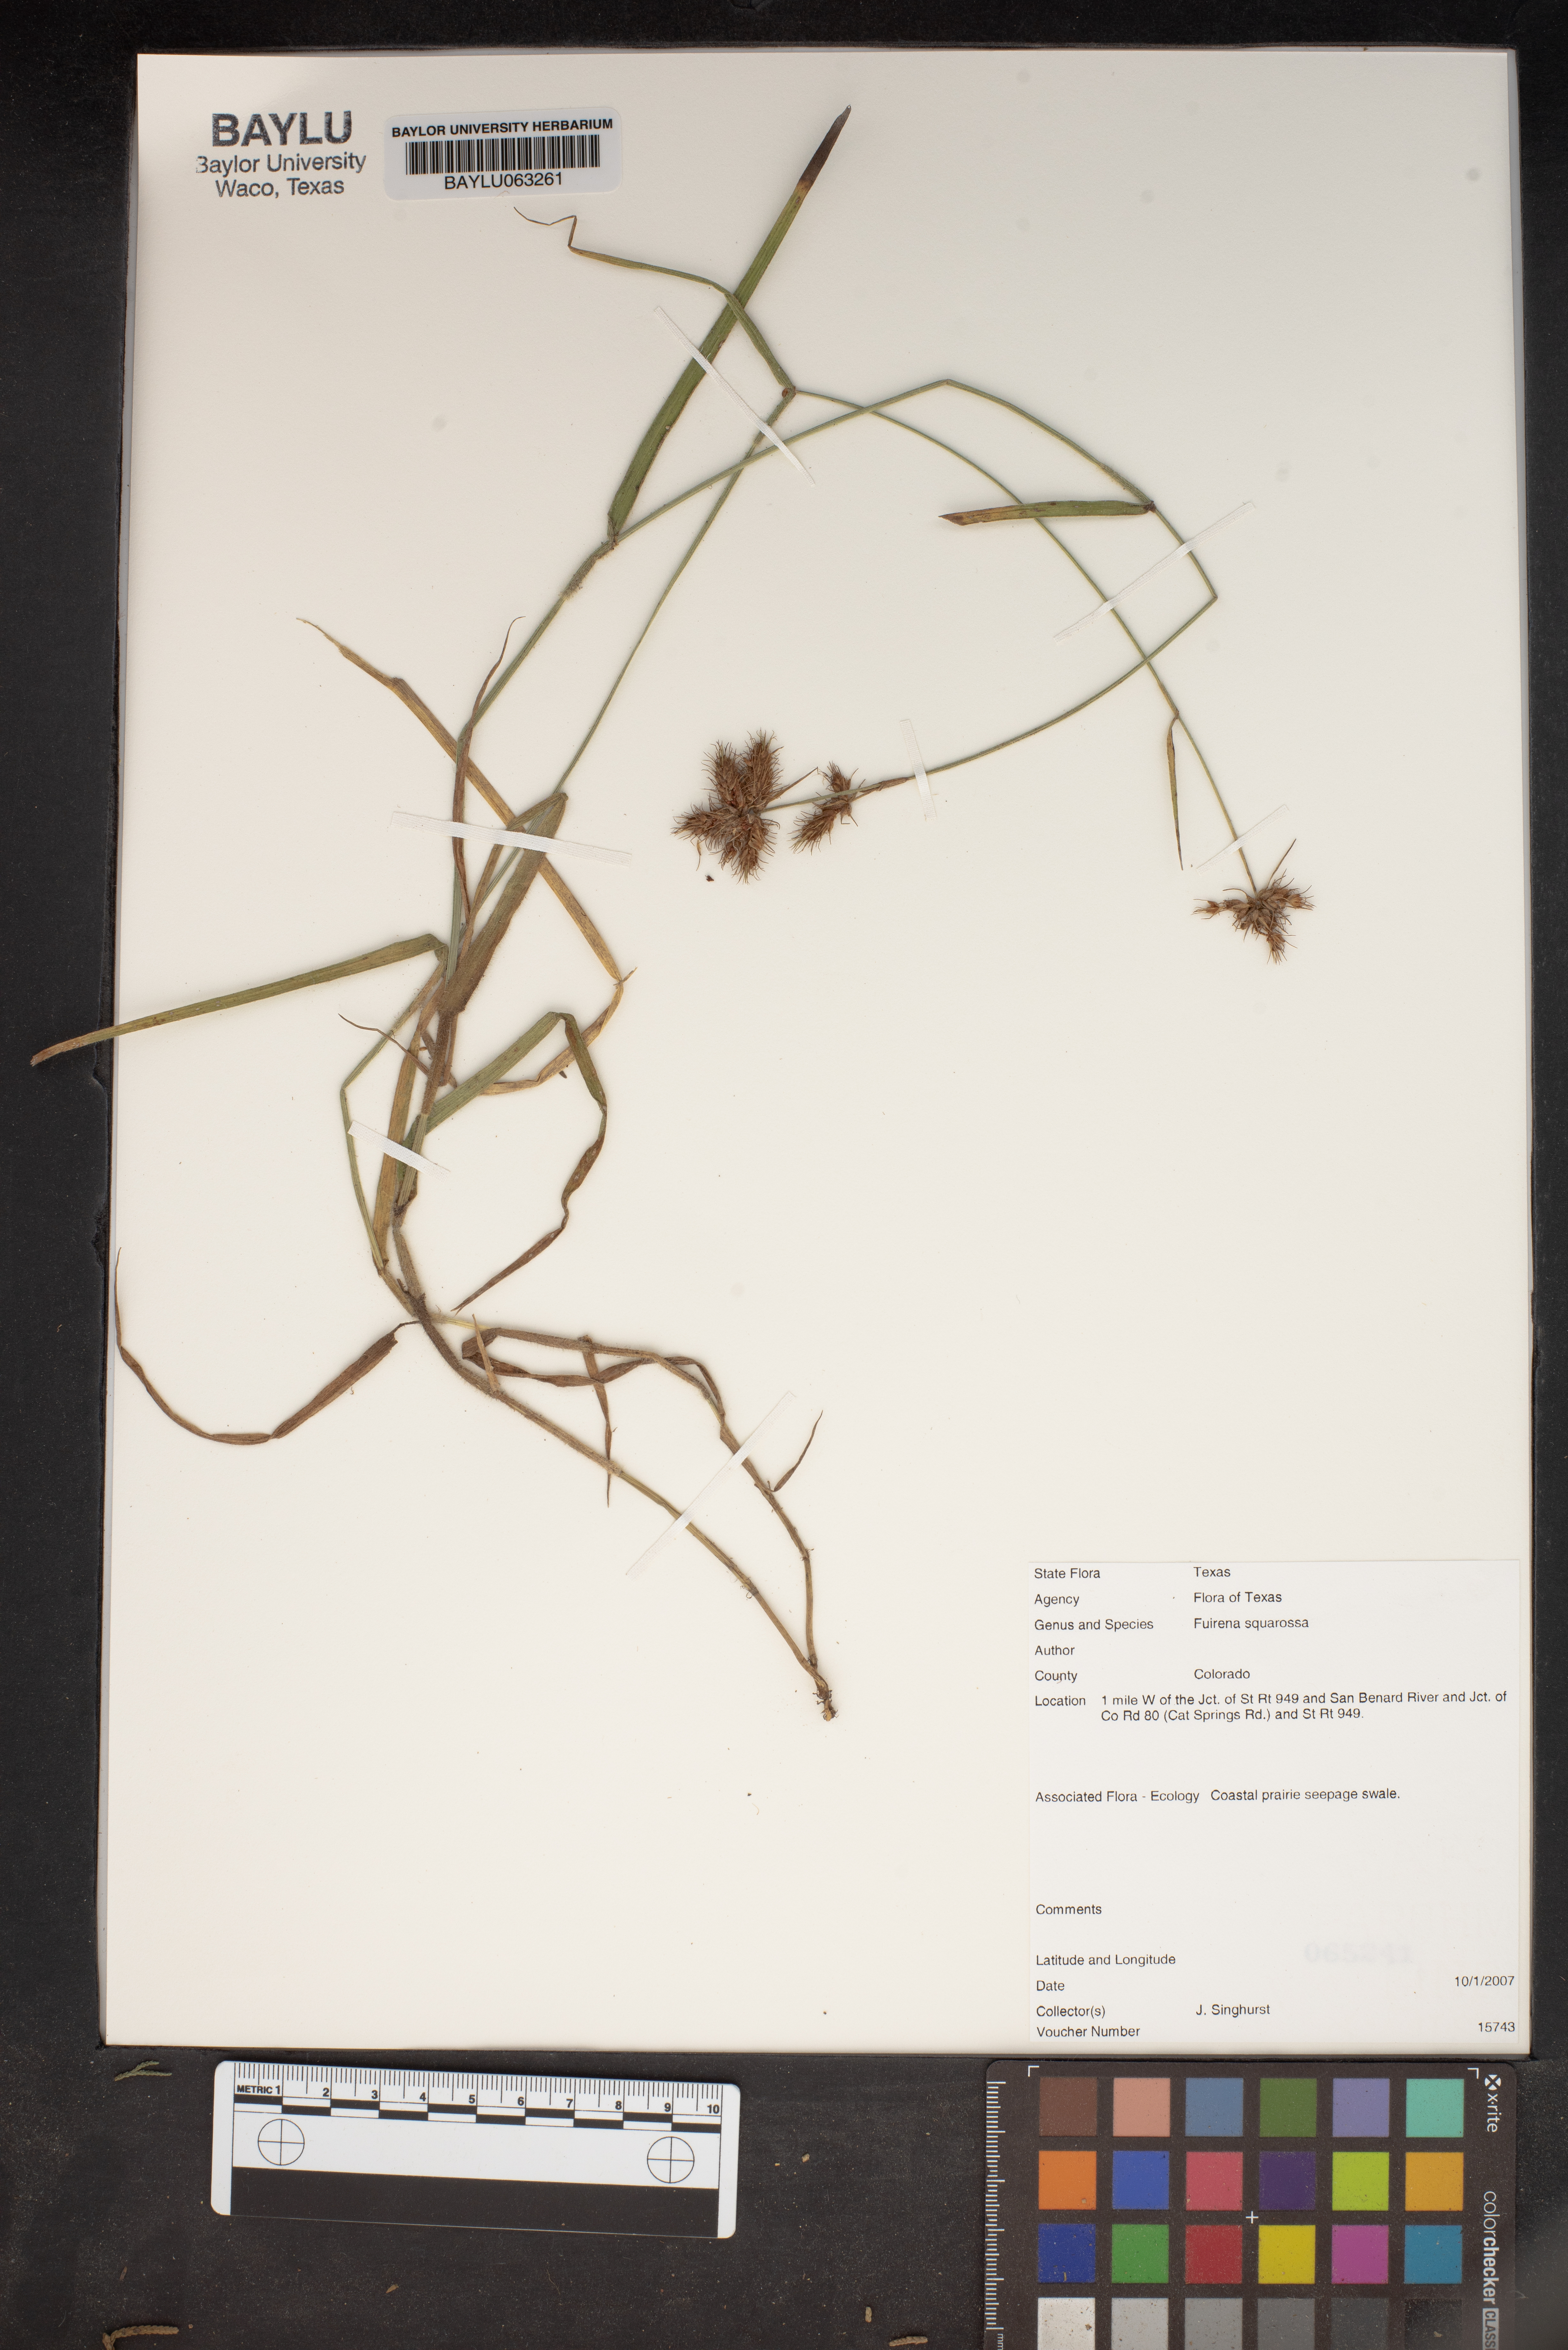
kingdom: Plantae
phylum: Tracheophyta
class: Liliopsida
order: Poales
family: Cyperaceae
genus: Fuirena
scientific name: Fuirena squarrosa
